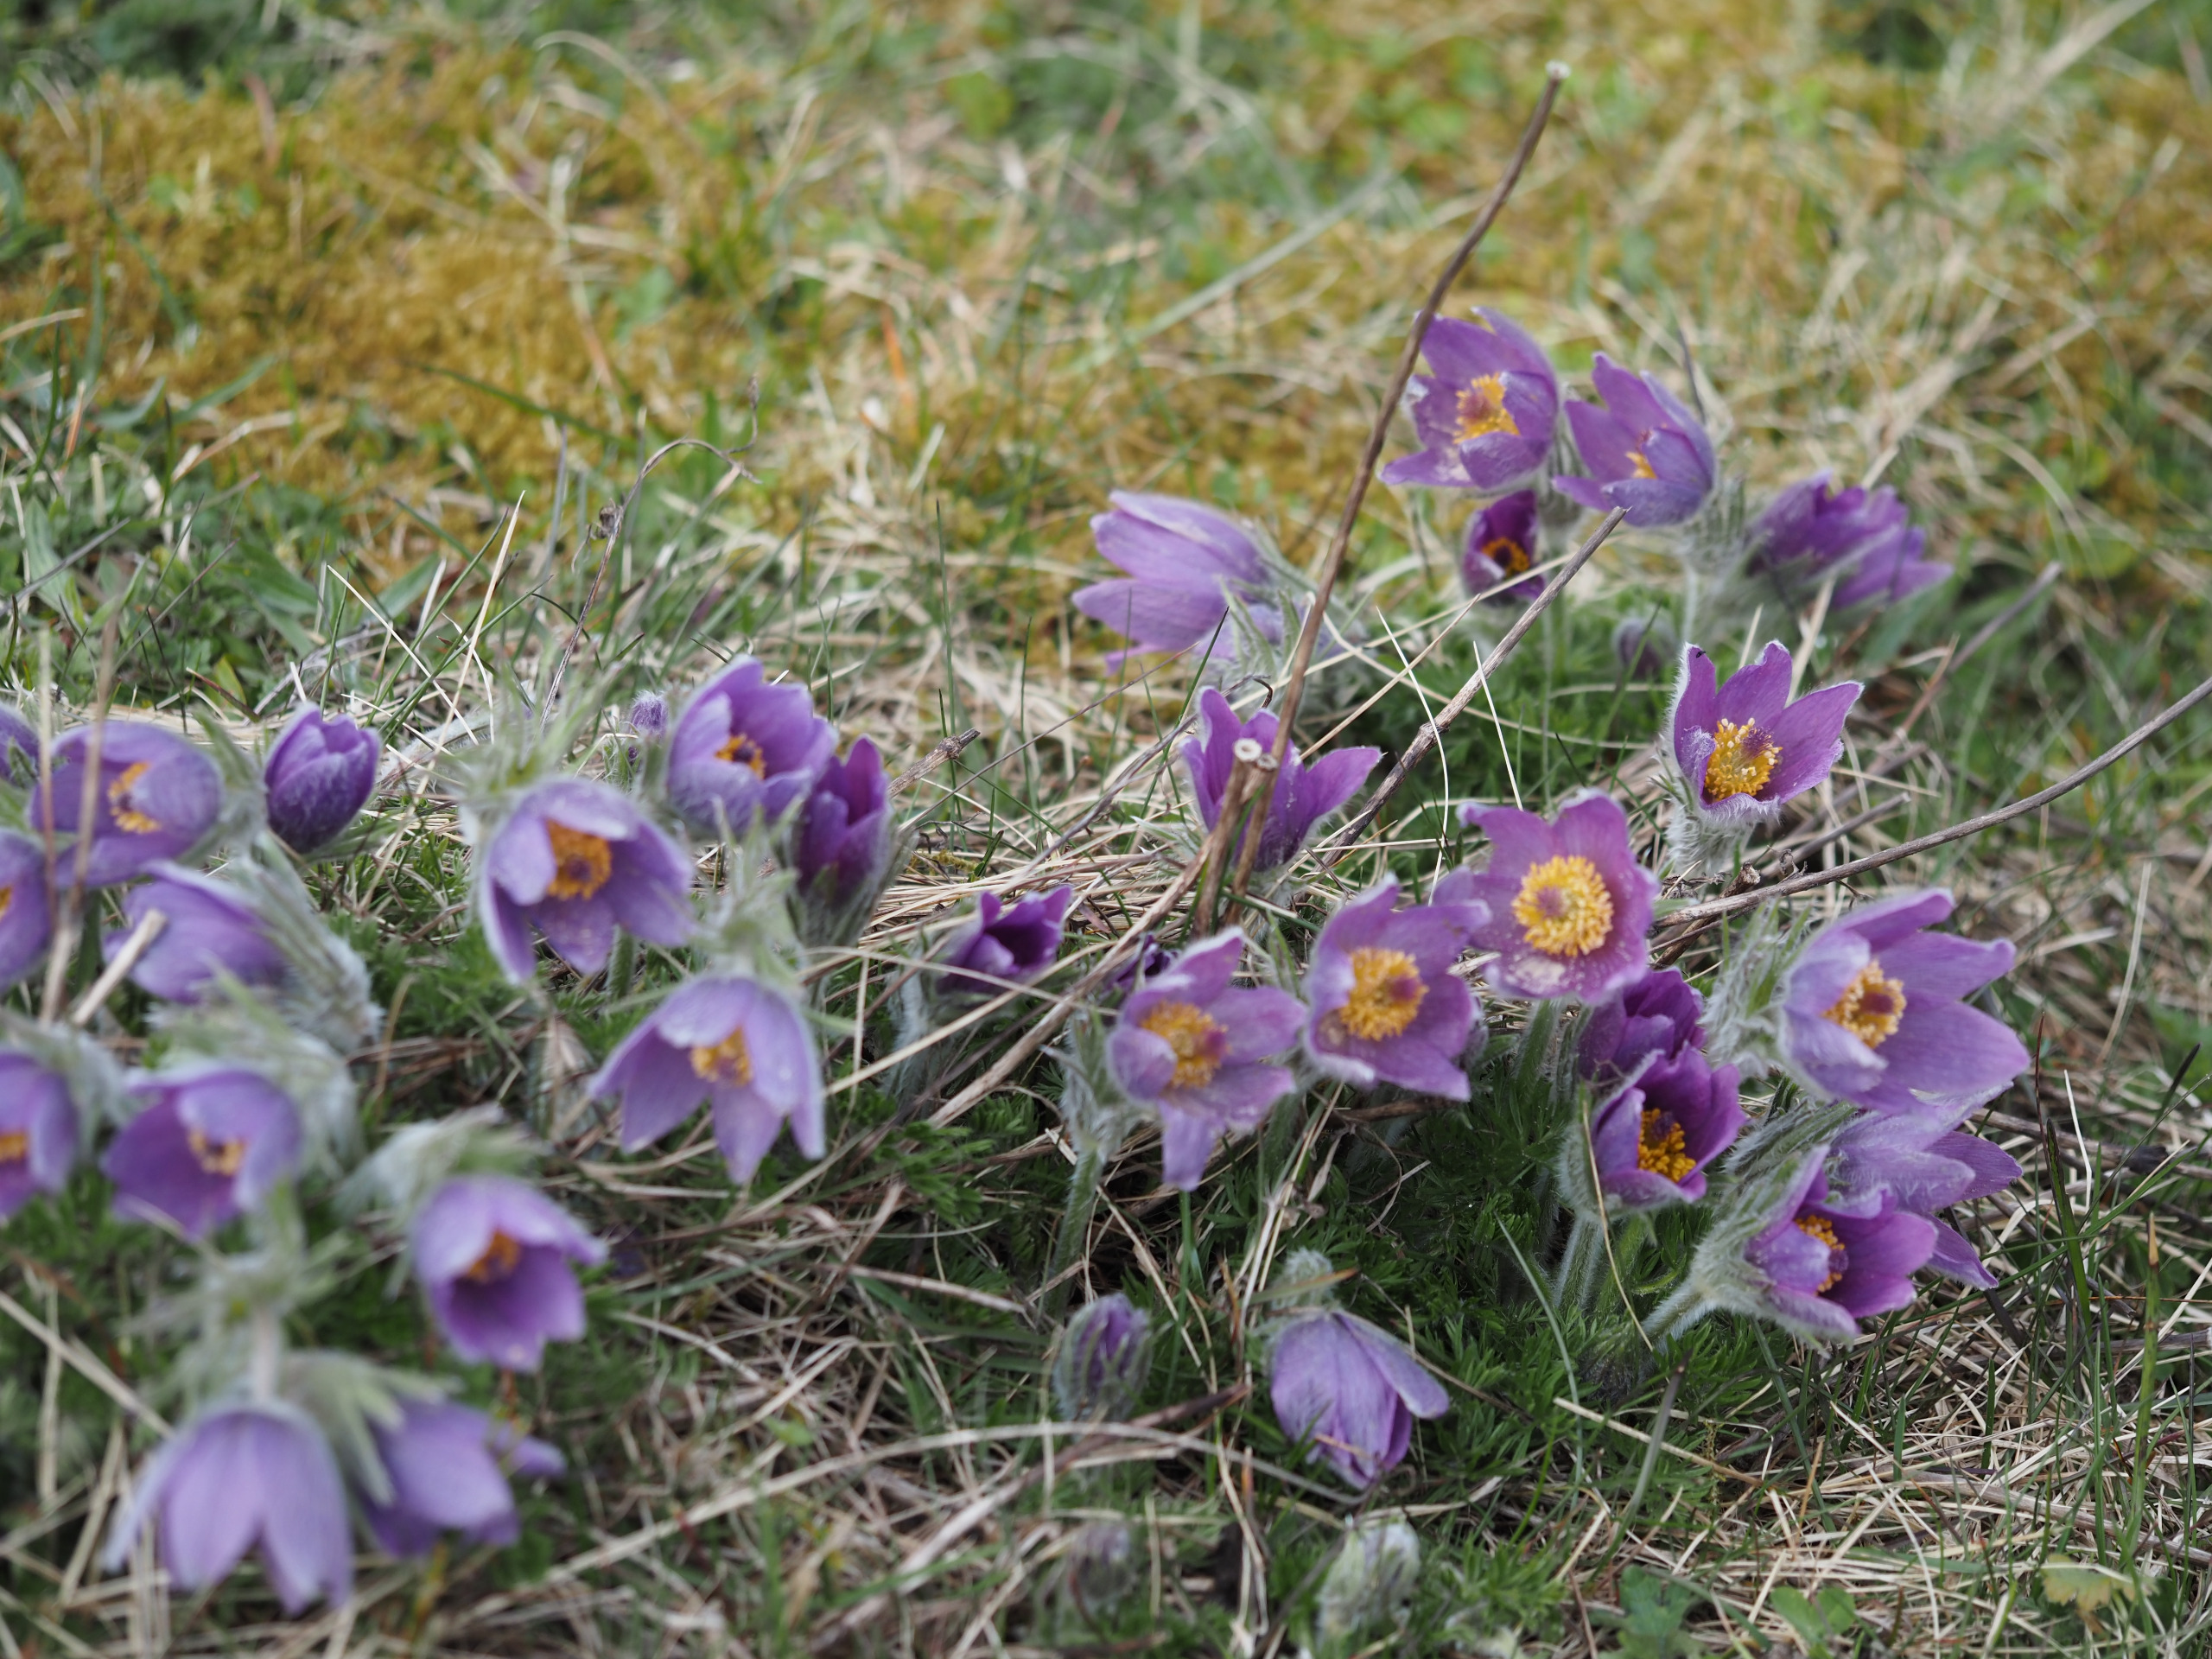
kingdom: Plantae
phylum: Tracheophyta
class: Magnoliopsida
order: Ranunculales
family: Ranunculaceae
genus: Pulsatilla
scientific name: Pulsatilla vulgaris
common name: Opret kobjælde
